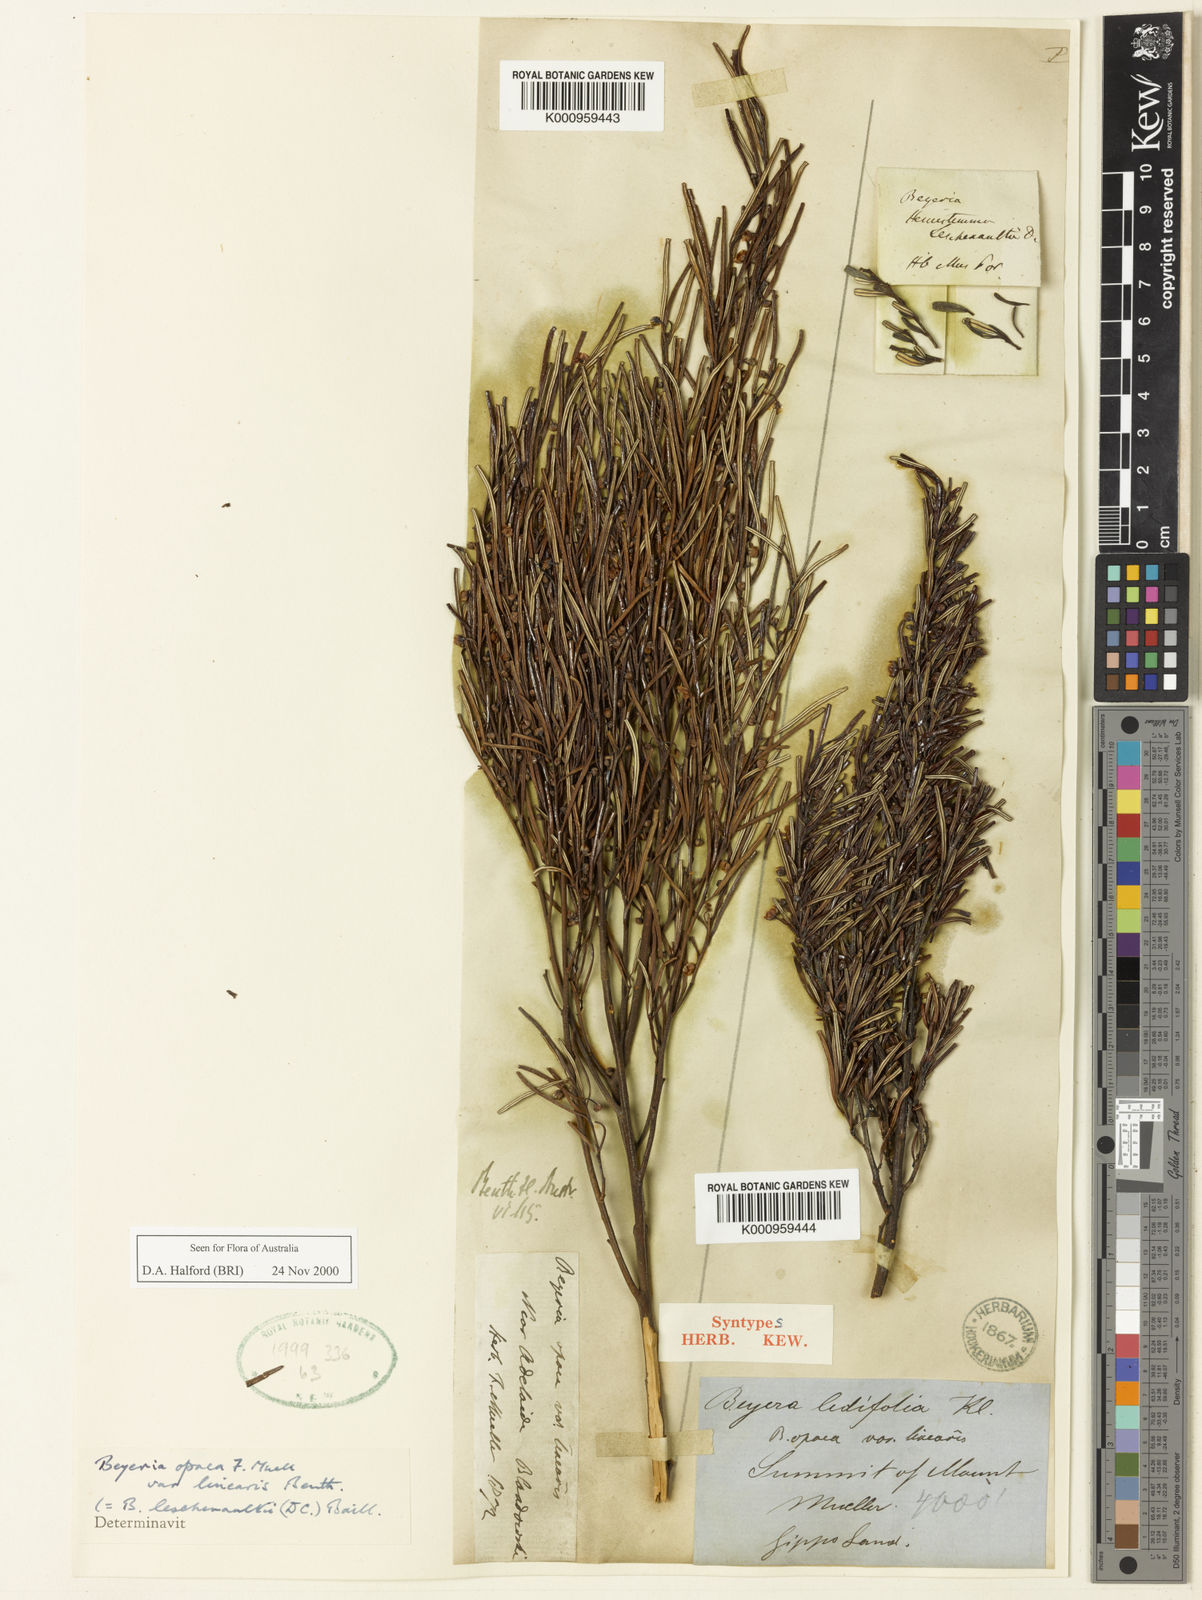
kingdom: Plantae
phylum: Tracheophyta
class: Magnoliopsida
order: Malpighiales
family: Euphorbiaceae
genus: Beyeria
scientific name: Beyeria
